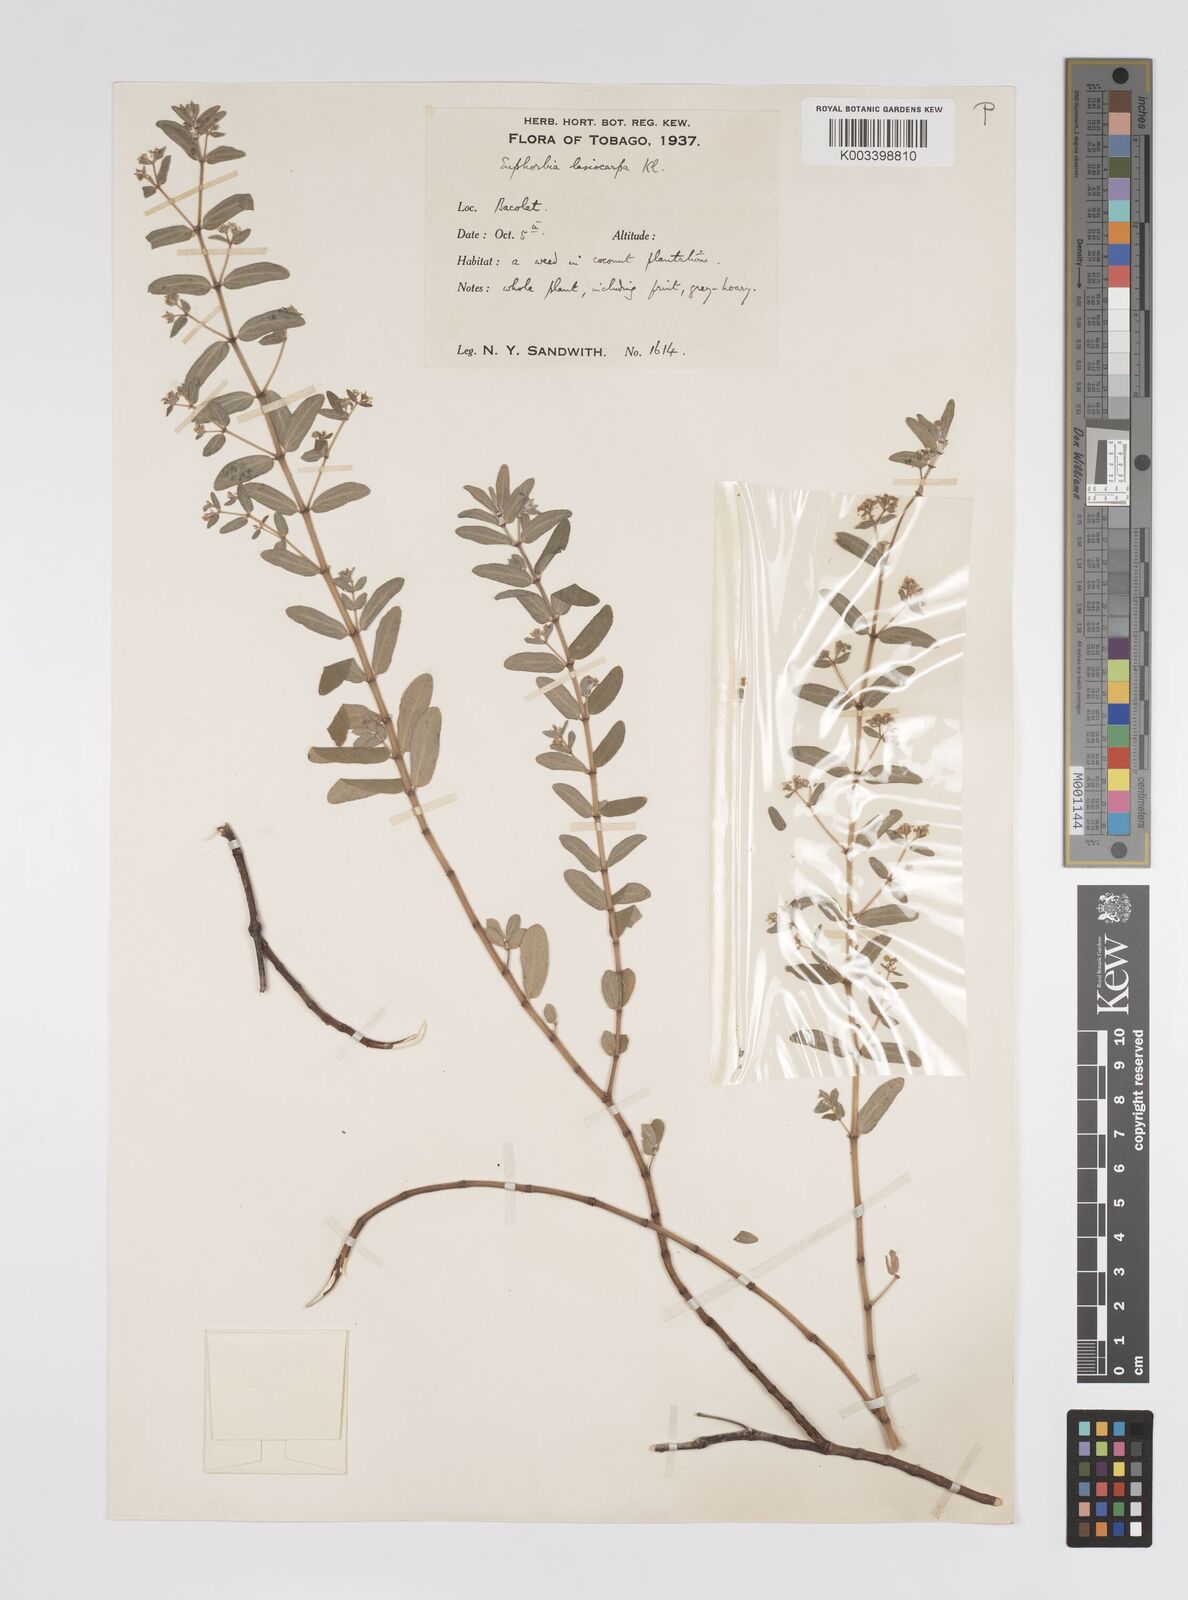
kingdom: Plantae
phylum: Tracheophyta
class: Magnoliopsida
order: Malpighiales
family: Euphorbiaceae
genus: Euphorbia
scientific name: Euphorbia lasiocarpa
